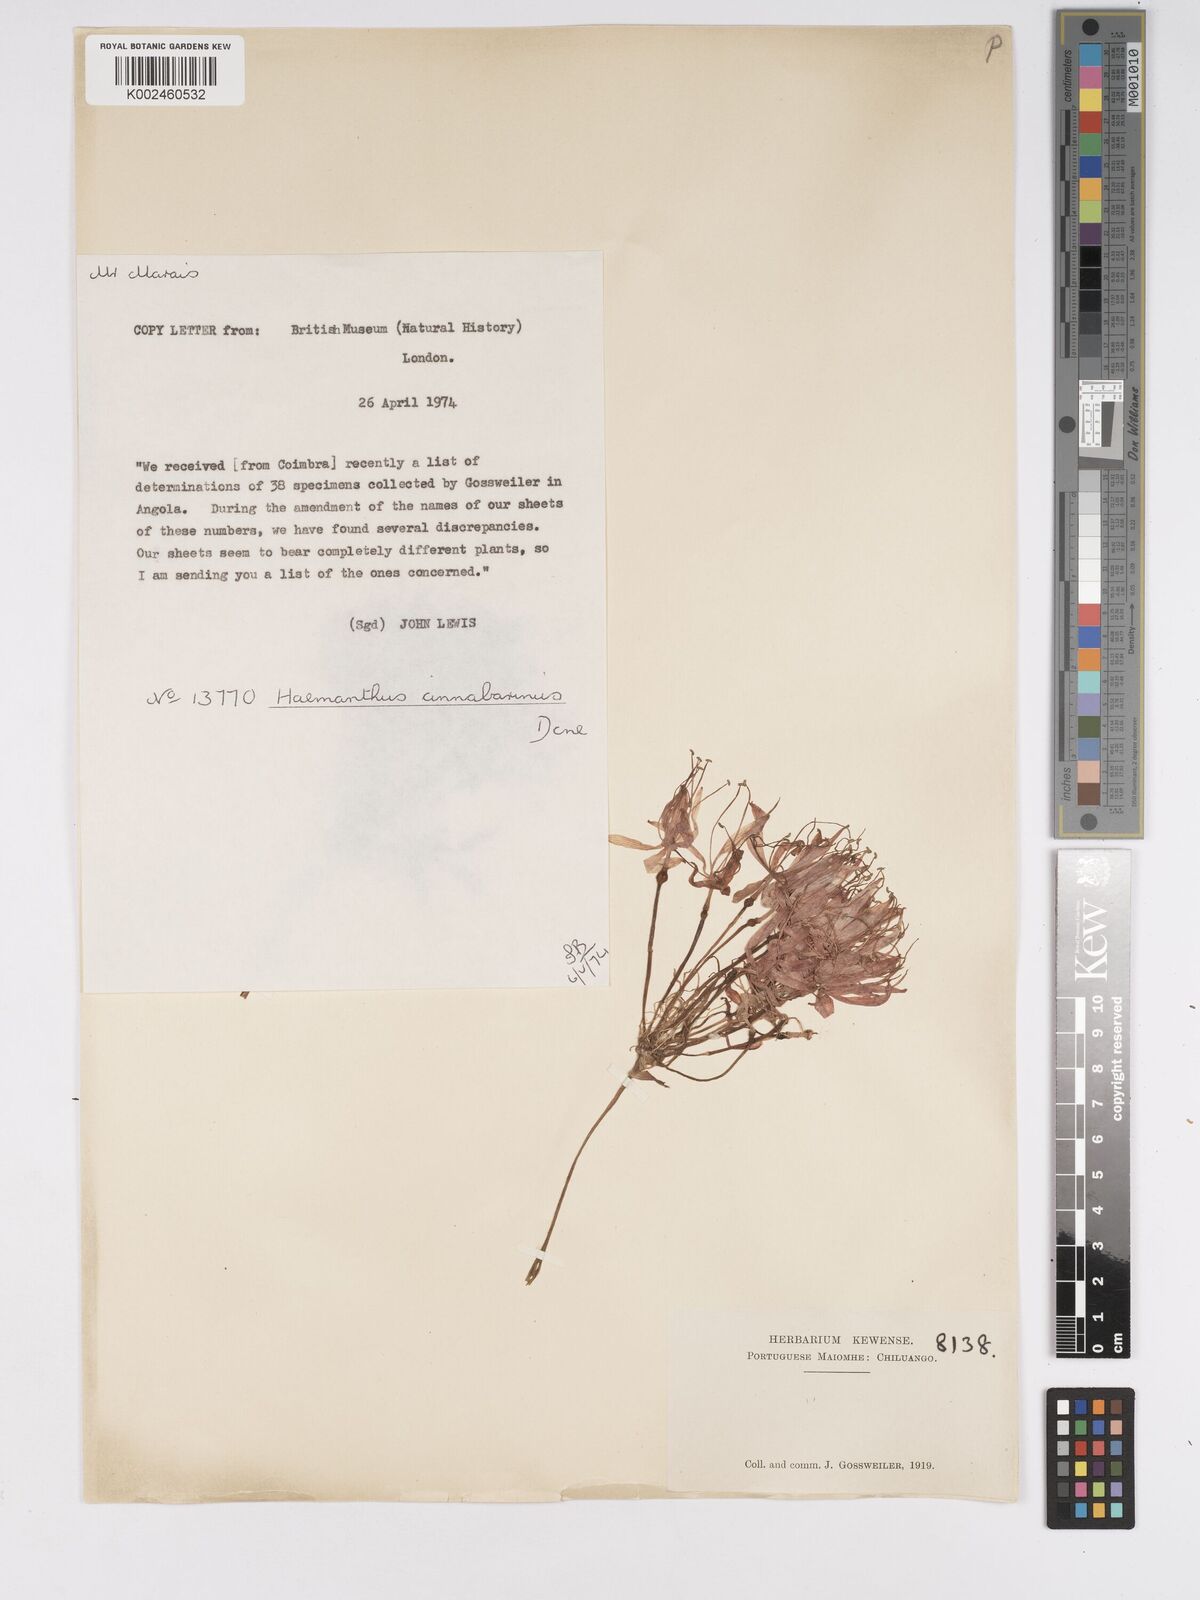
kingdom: Plantae
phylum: Tracheophyta
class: Liliopsida
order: Asparagales
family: Amaryllidaceae
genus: Scadoxus
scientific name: Scadoxus cinnabarinus
